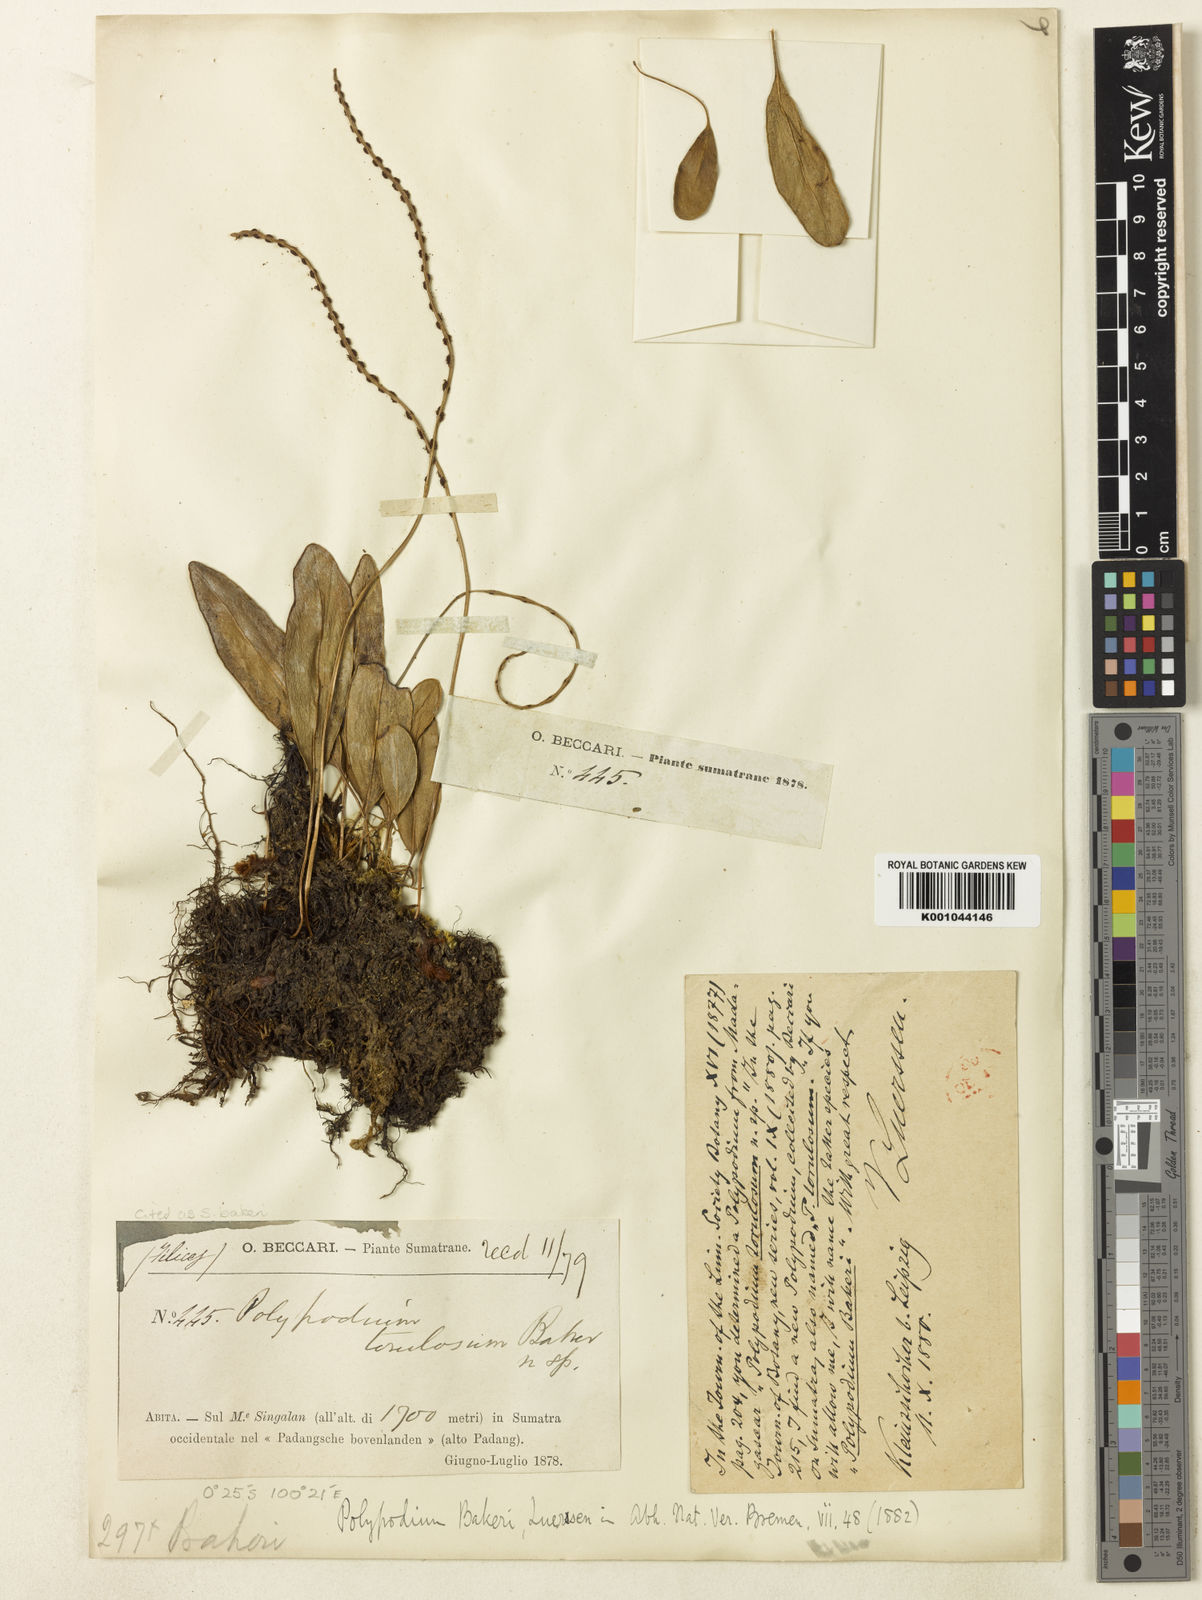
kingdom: Plantae
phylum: Tracheophyta
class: Polypodiopsida
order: Polypodiales
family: Polypodiaceae
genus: Selliguea
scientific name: Selliguea bakeri
